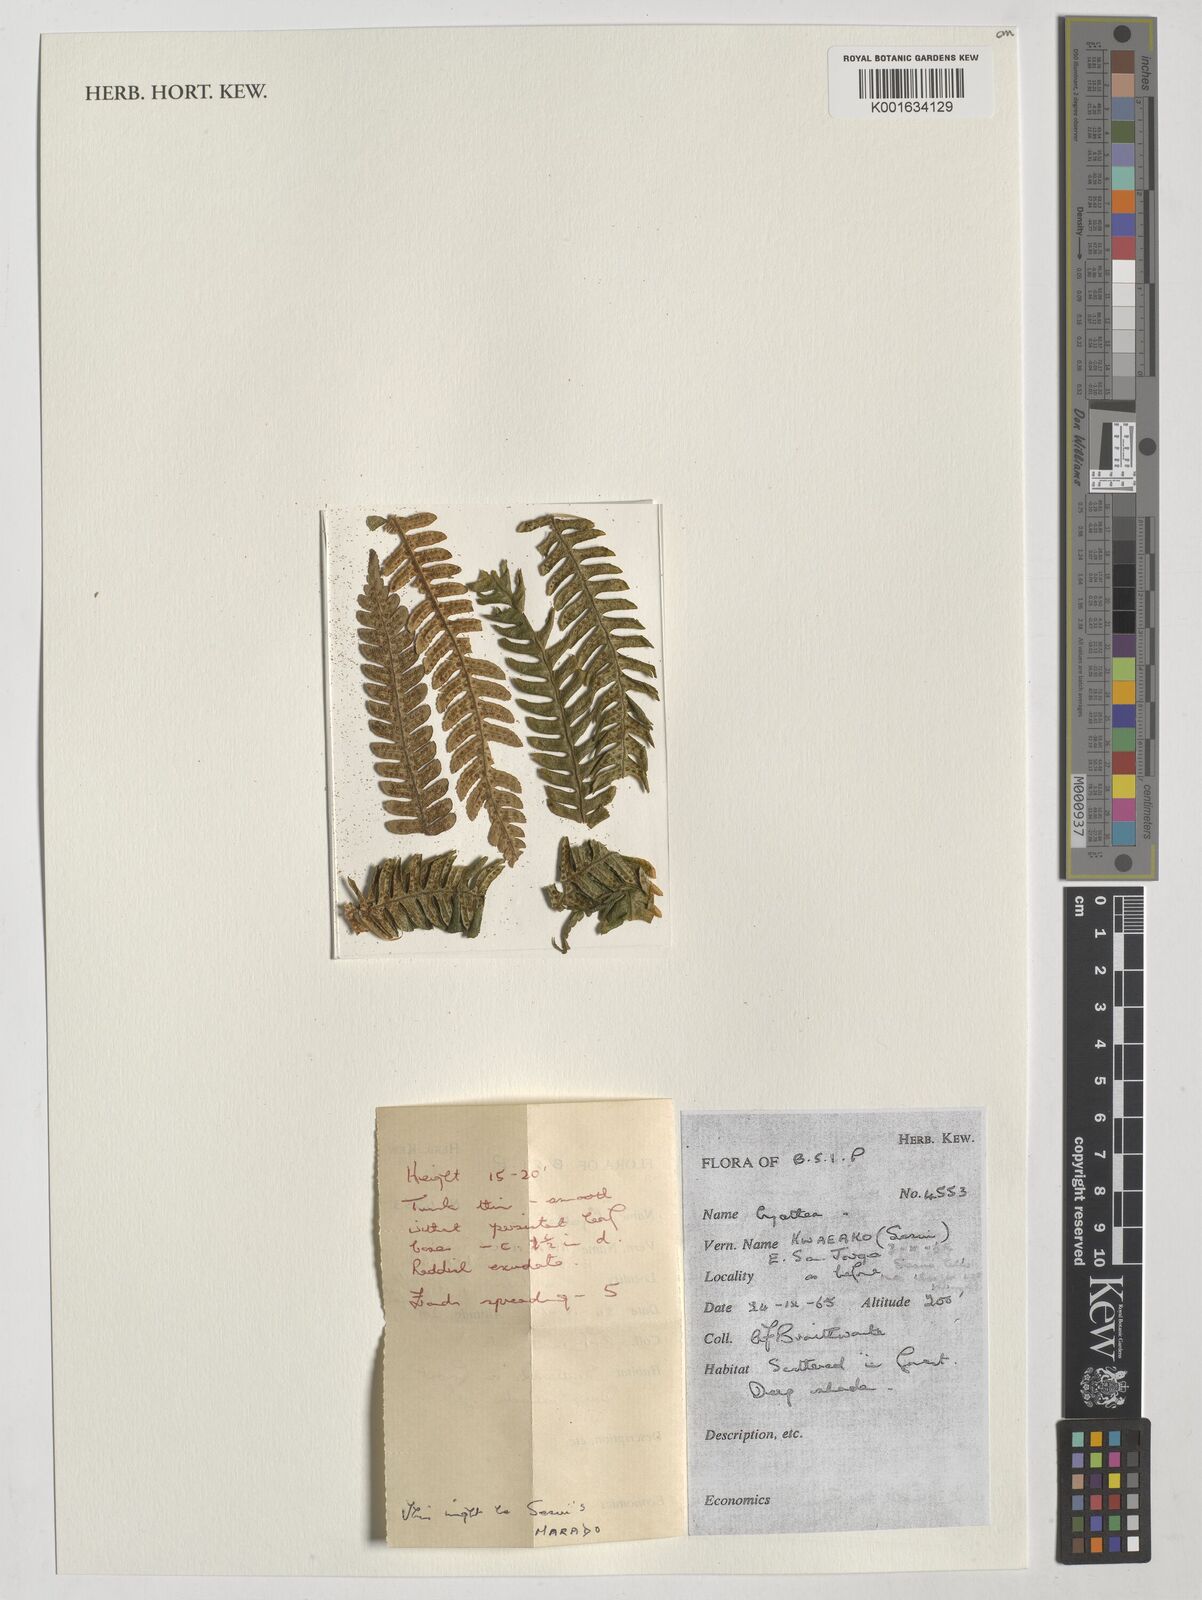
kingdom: Plantae
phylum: Tracheophyta
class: Polypodiopsida
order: Cyatheales
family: Cyatheaceae
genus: Cyathea
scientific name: Cyathea
